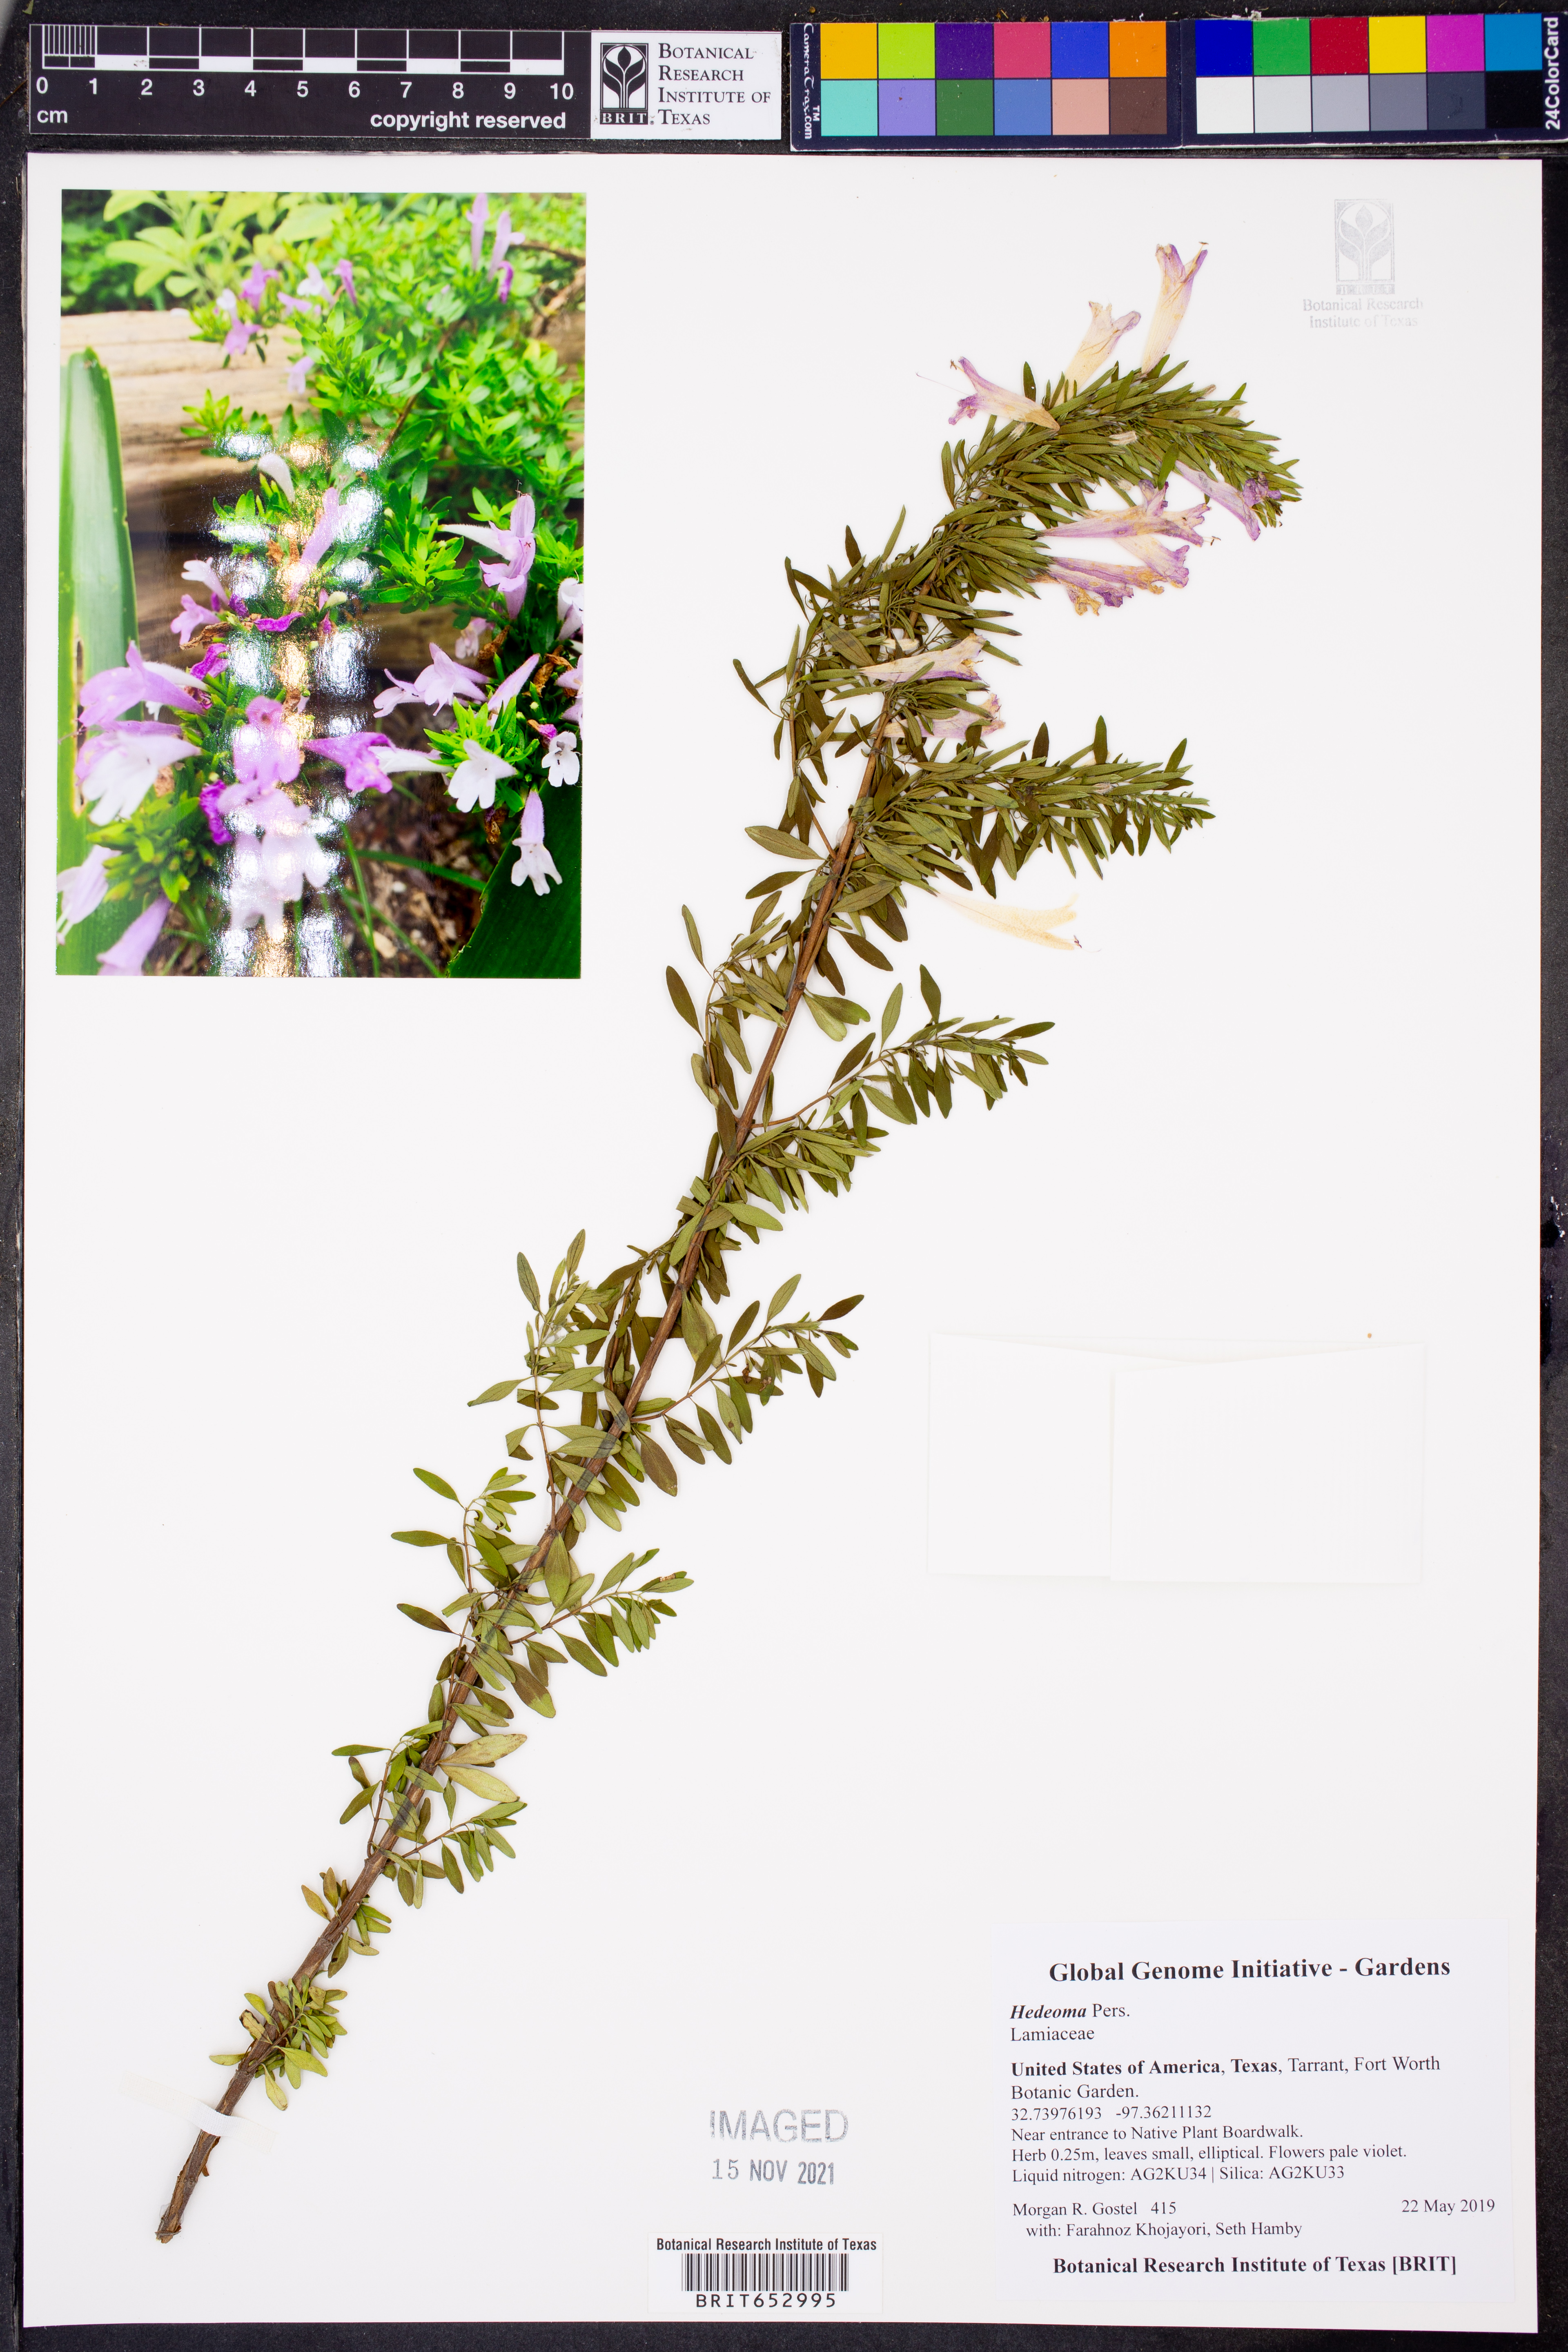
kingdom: Plantae
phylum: Tracheophyta
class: Magnoliopsida
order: Lamiales
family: Lamiaceae
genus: Hedeoma
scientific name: Hedeoma
